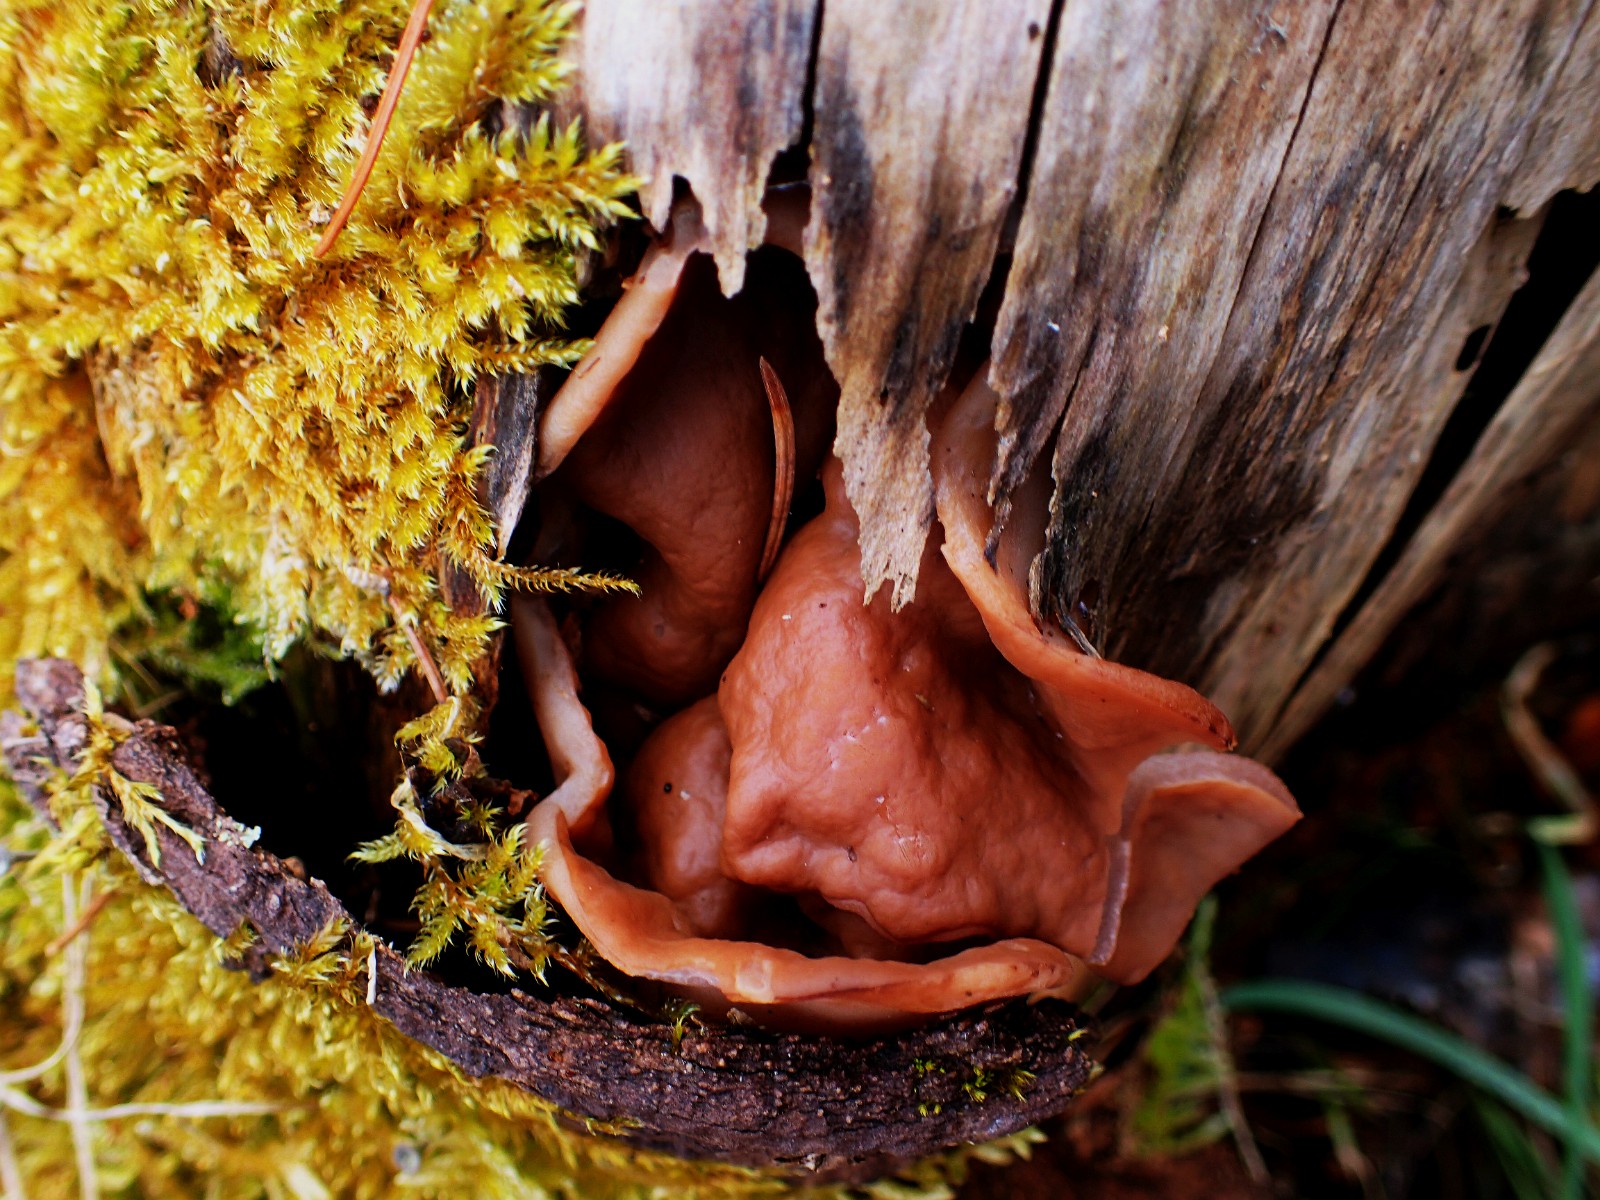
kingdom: Fungi
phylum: Ascomycota
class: Pezizomycetes
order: Pezizales
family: Discinaceae
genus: Discina
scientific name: Discina ancilis
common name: udbredt stenmorkel
